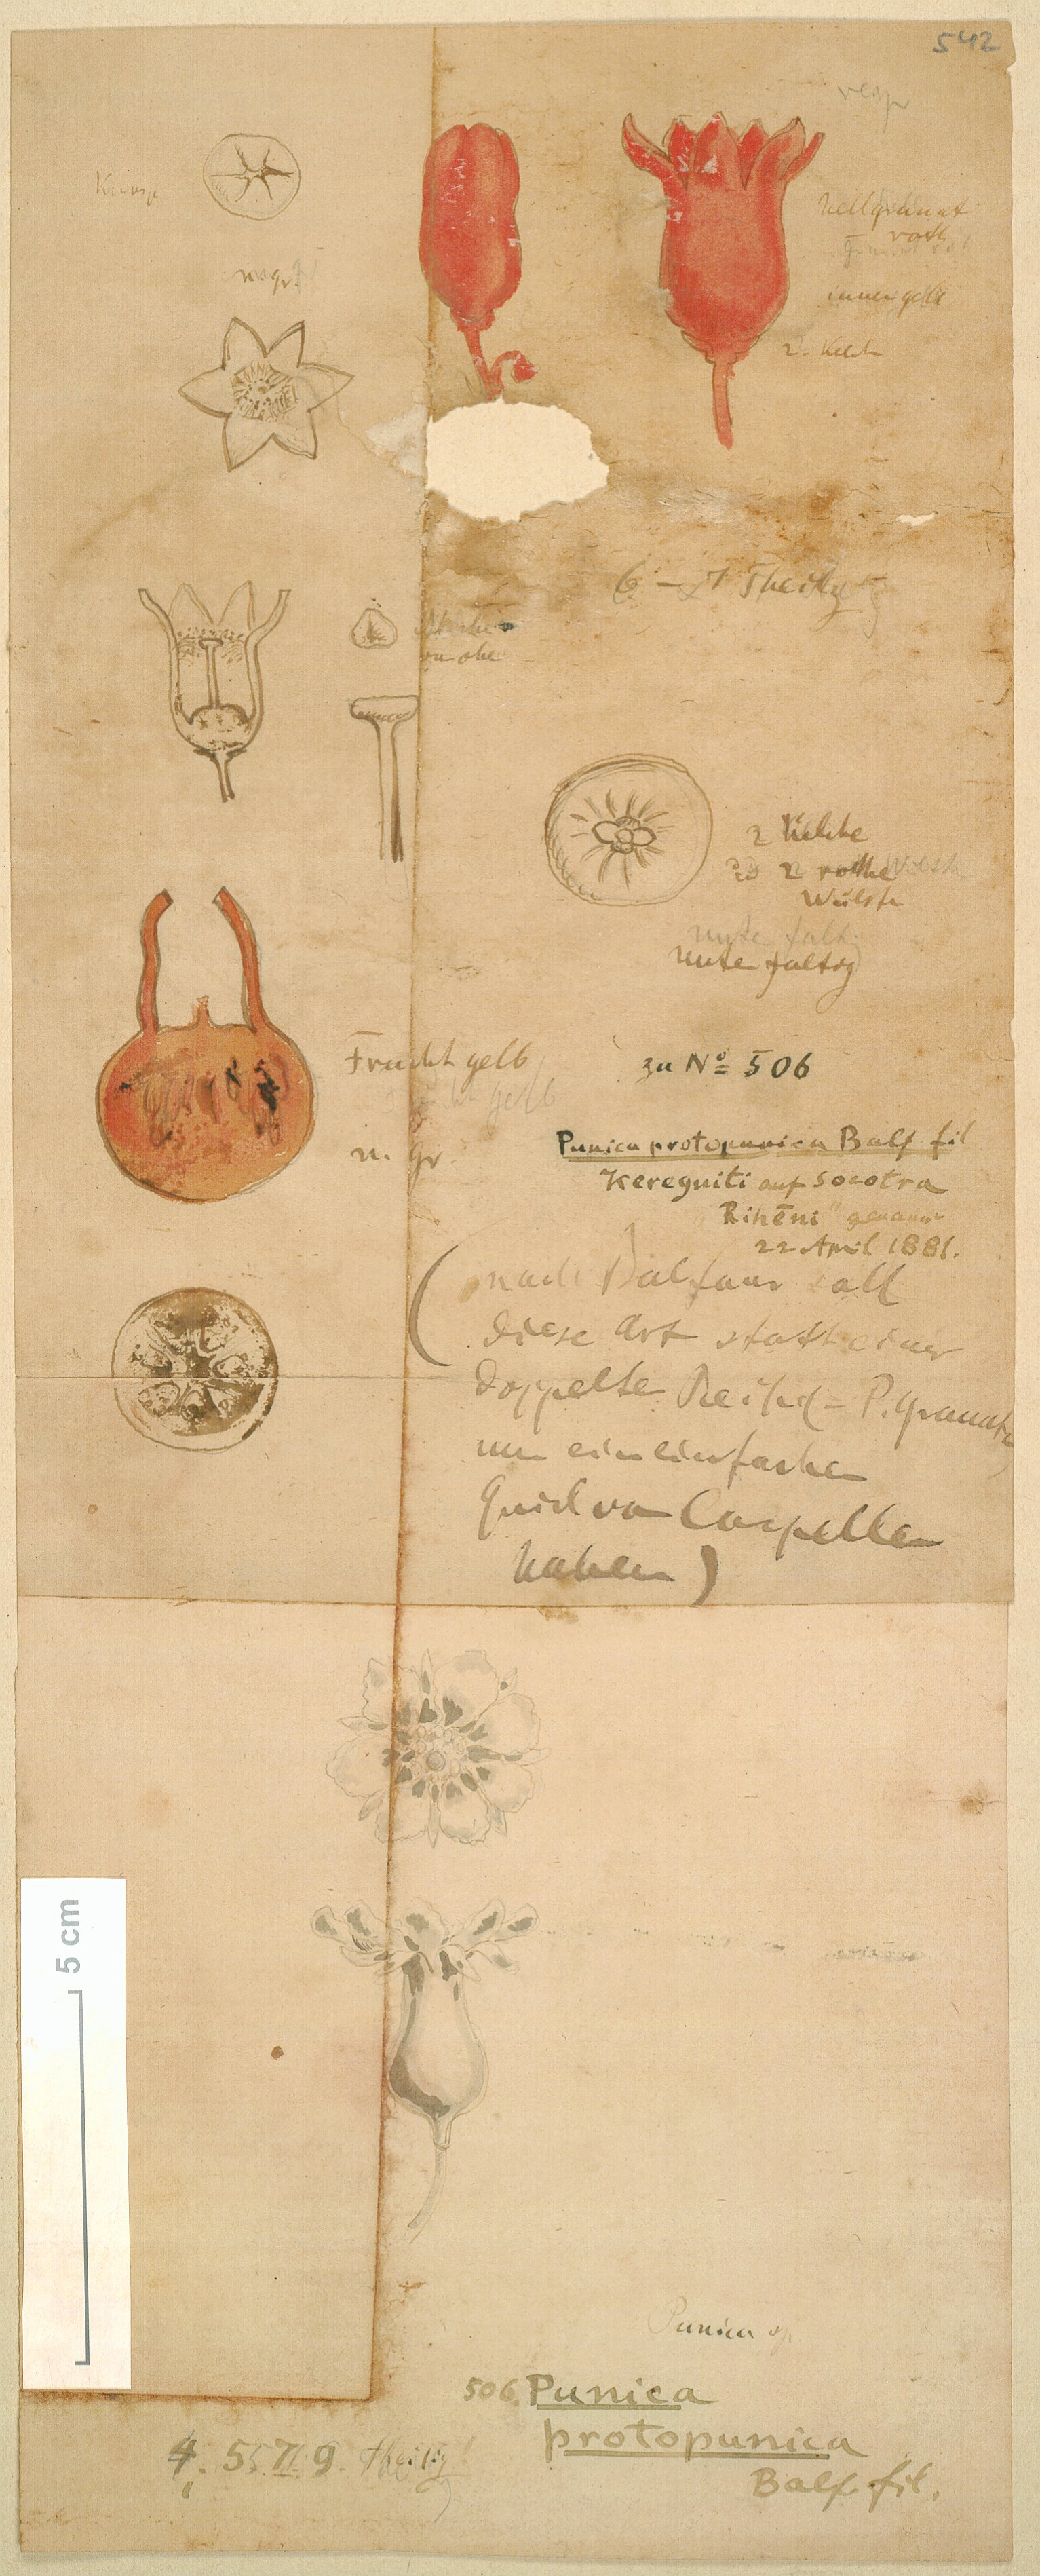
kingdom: Plantae
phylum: Tracheophyta
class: Magnoliopsida
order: Myrtales
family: Lythraceae
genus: Punica
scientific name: Punica protopunica
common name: Pomegranate tree
